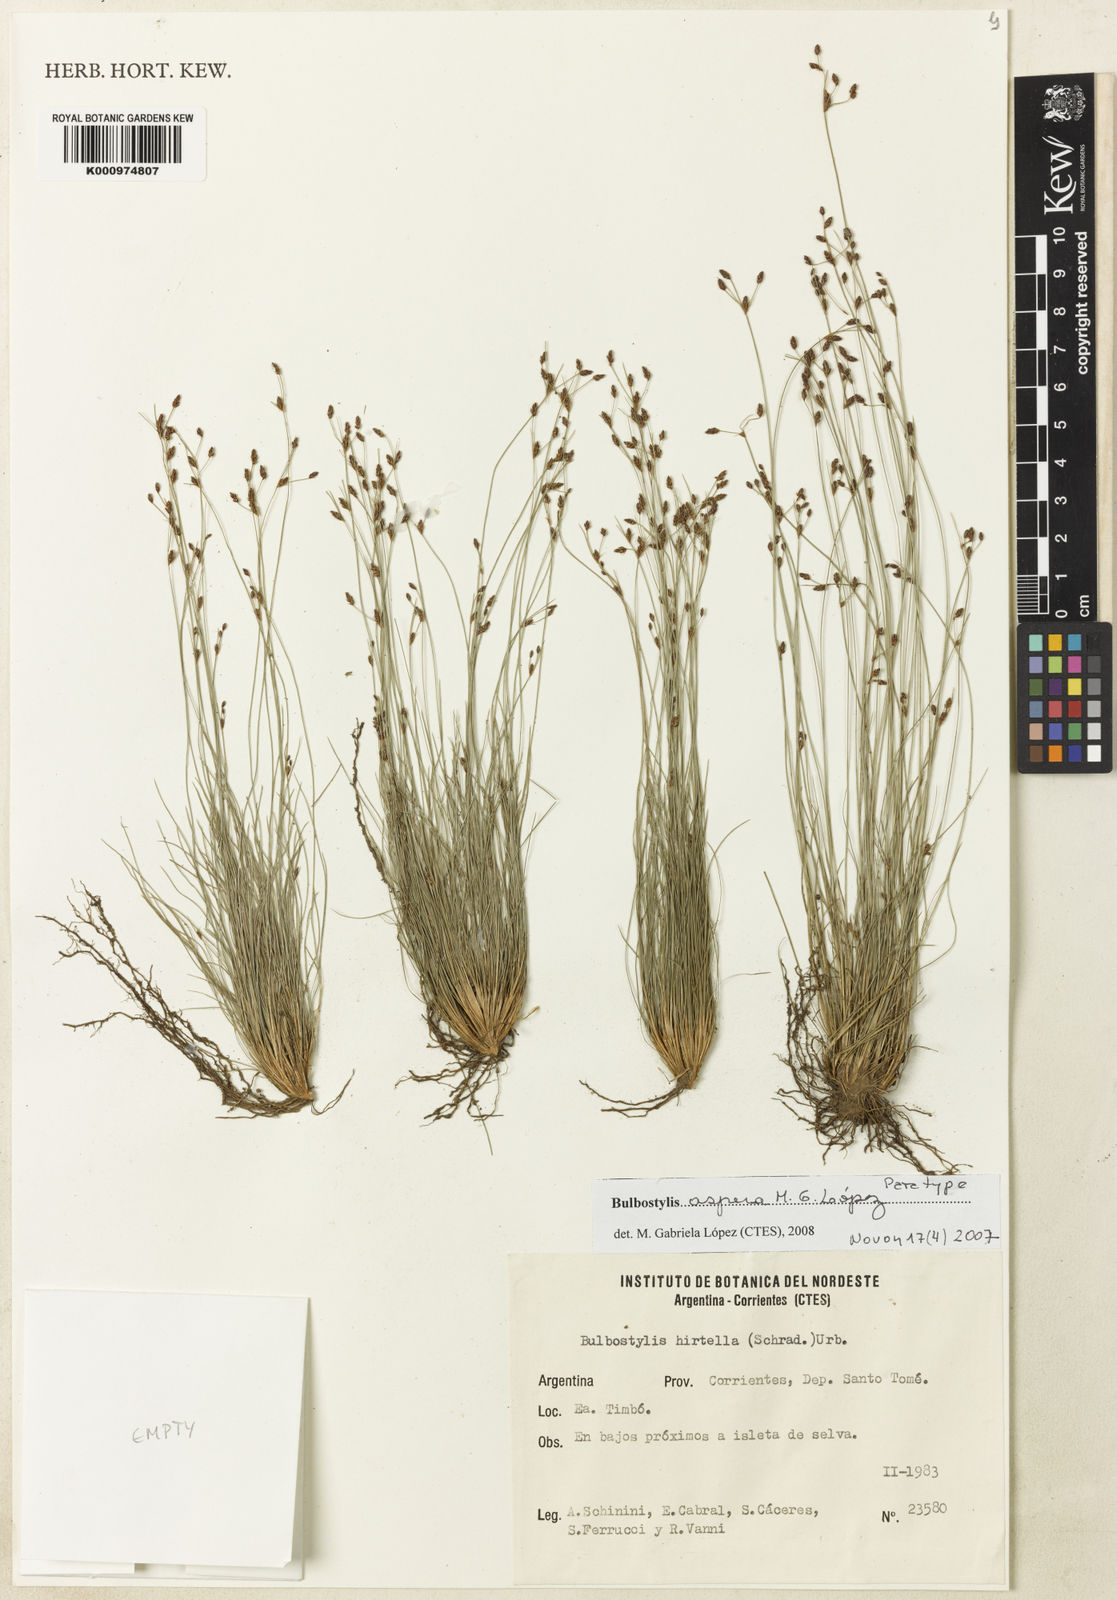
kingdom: Plantae
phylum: Tracheophyta
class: Liliopsida
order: Poales
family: Cyperaceae
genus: Bulbostylis
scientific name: Bulbostylis
